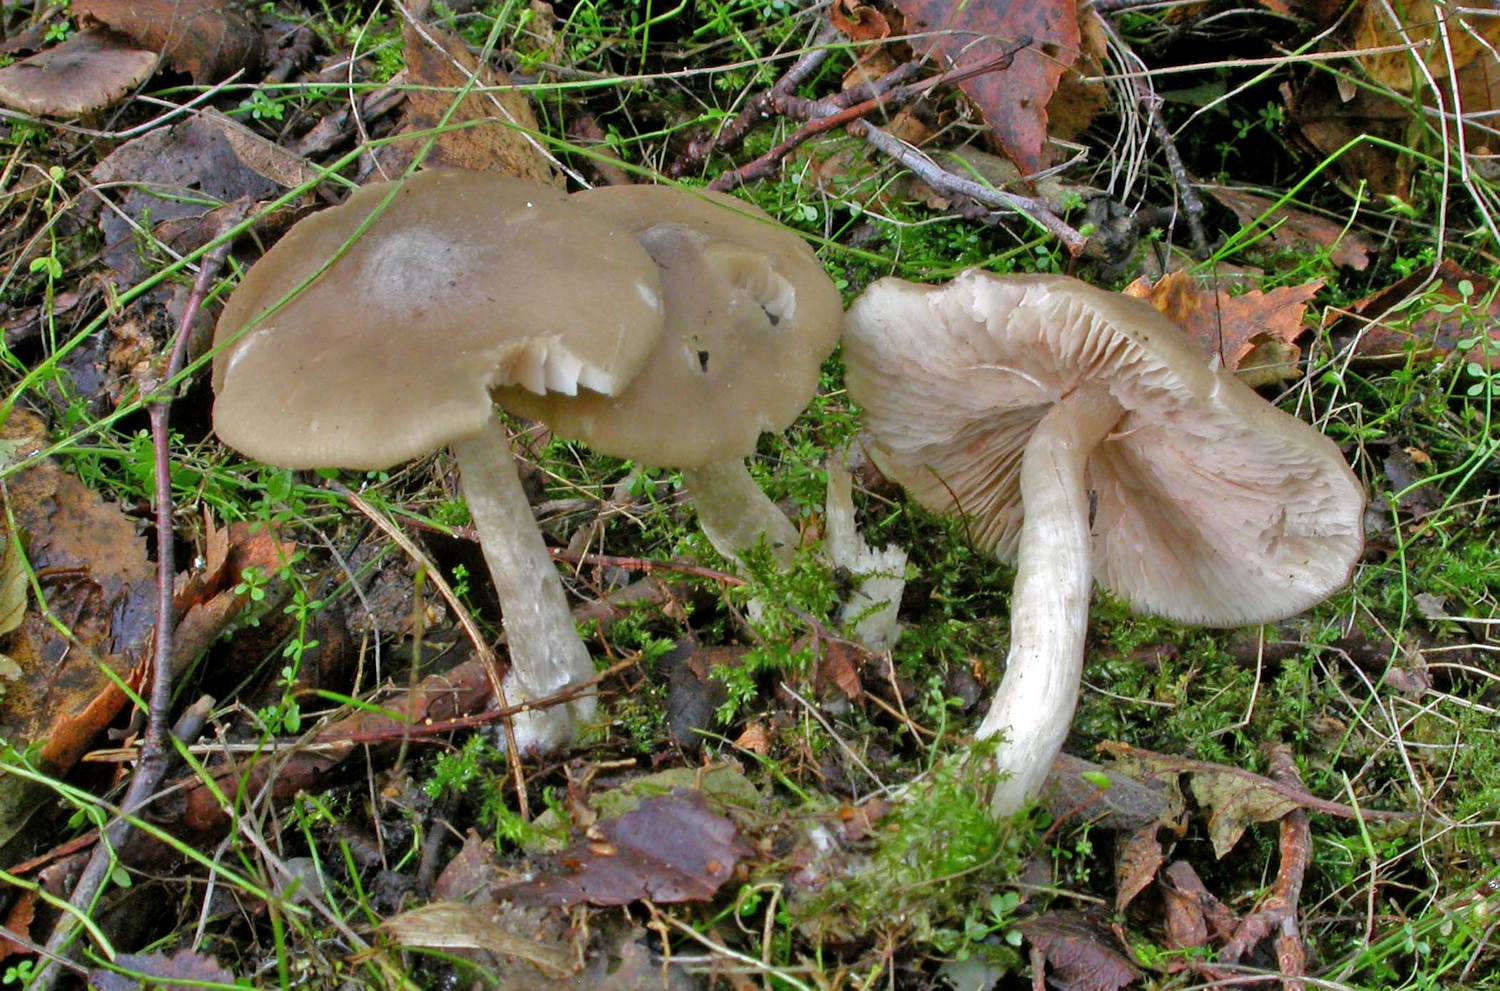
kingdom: Fungi
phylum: Basidiomycota
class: Agaricomycetes
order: Agaricales
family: Entolomataceae
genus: Entoloma
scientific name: Entoloma sericatum
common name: rank rødblad
